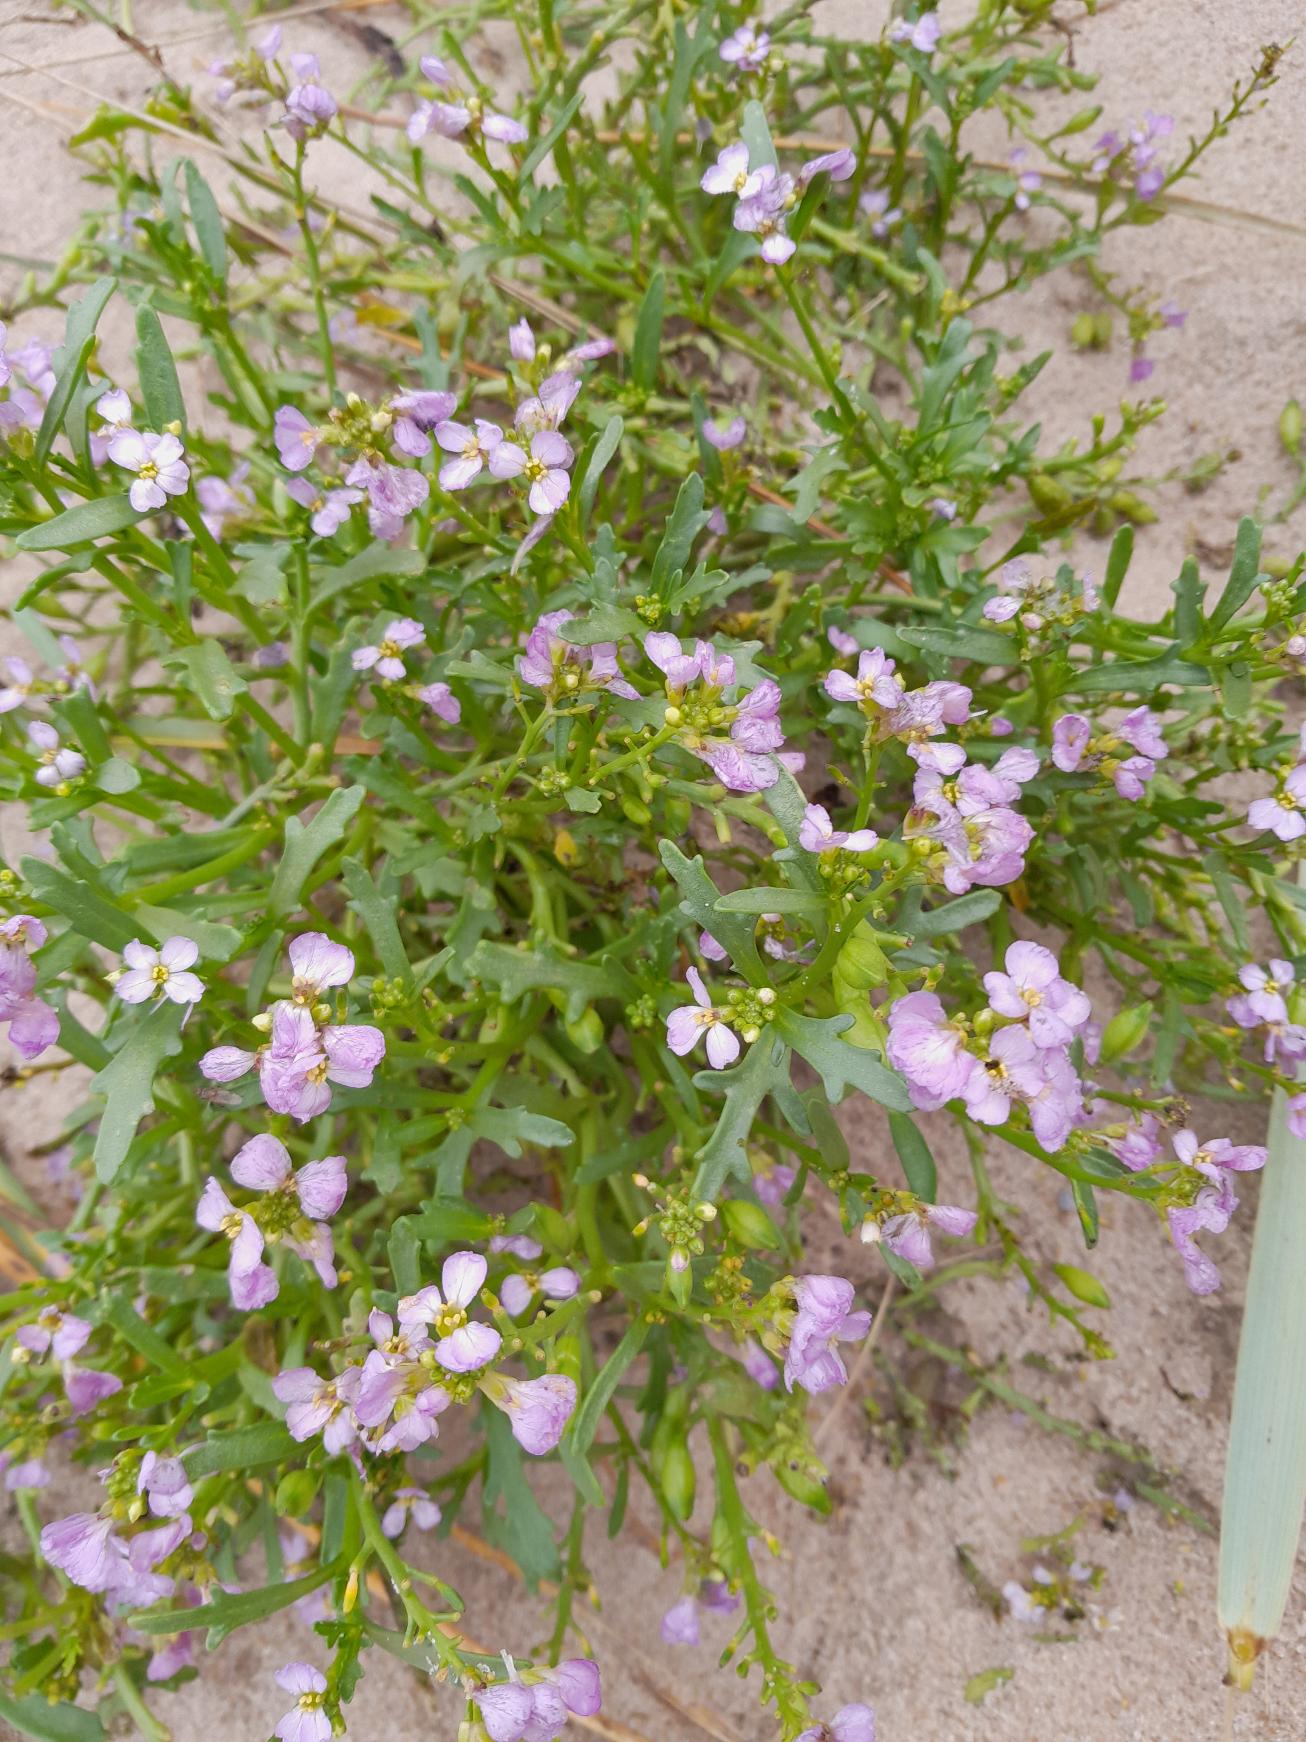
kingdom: Plantae
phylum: Tracheophyta
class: Magnoliopsida
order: Brassicales
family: Brassicaceae
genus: Cakile
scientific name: Cakile maritima
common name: Vesterhavs-strandsennep
